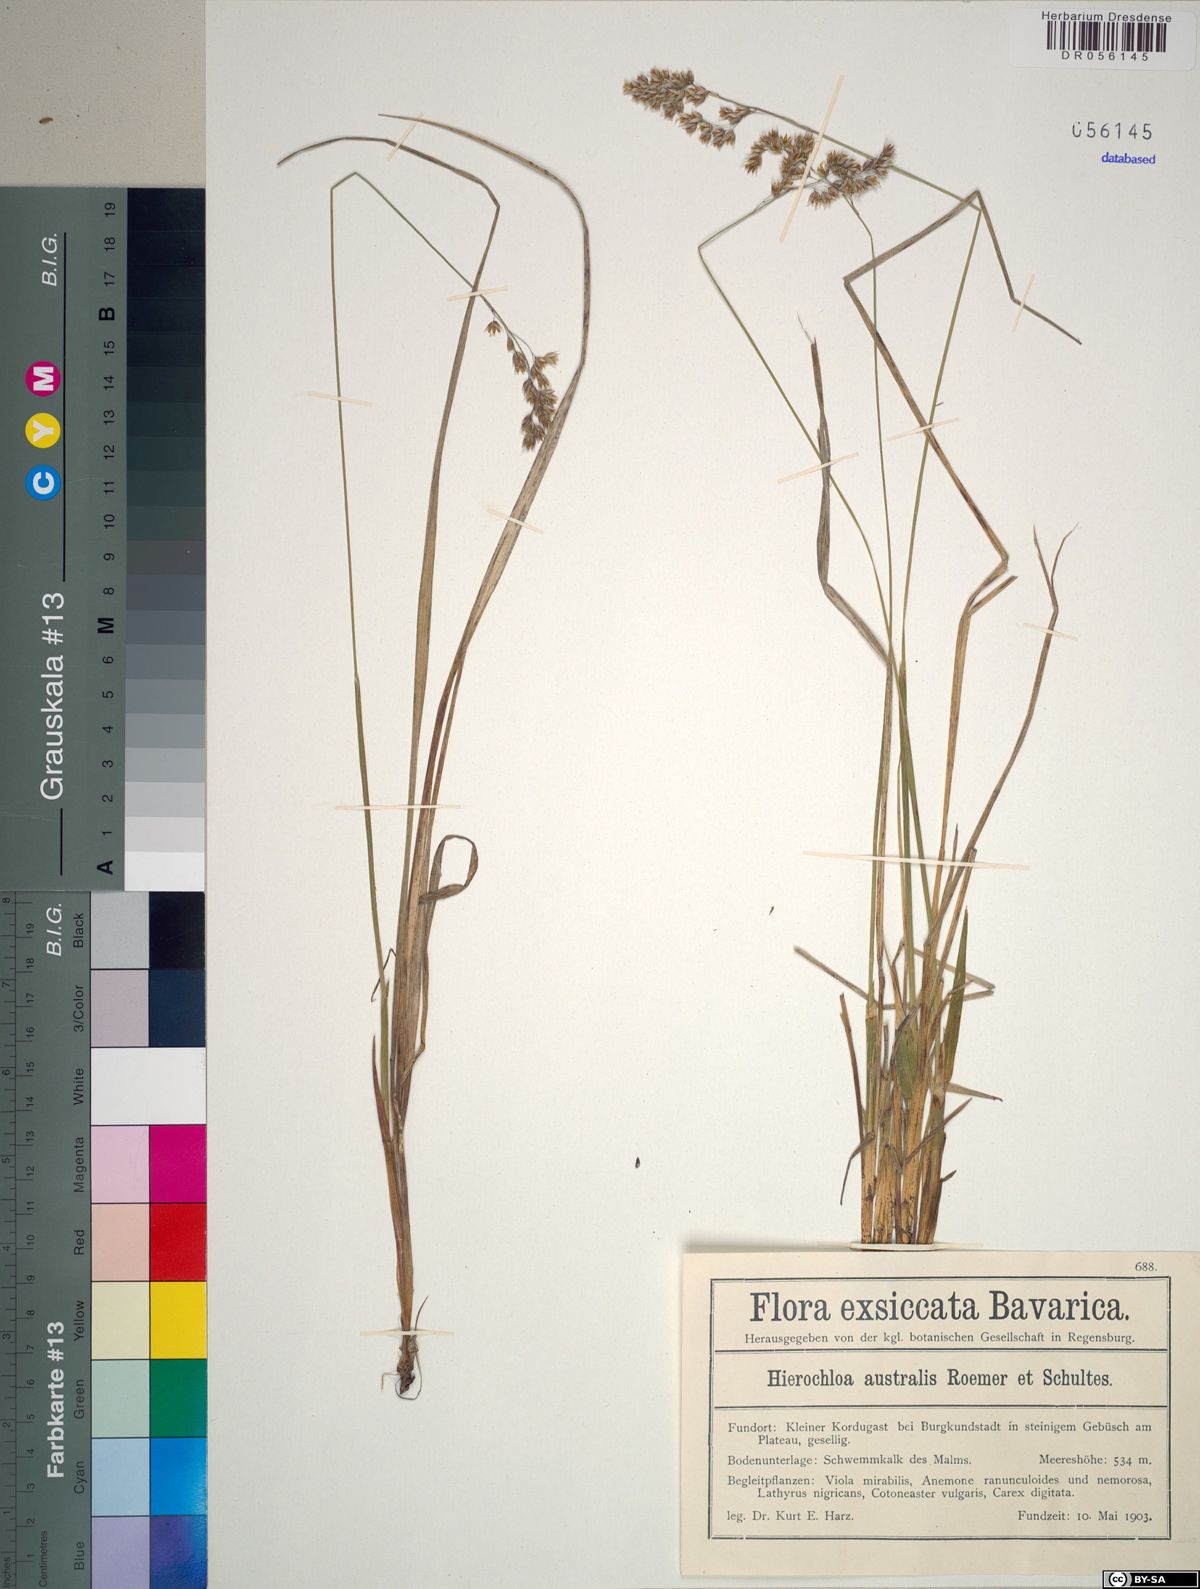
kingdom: Plantae
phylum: Tracheophyta
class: Liliopsida
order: Poales
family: Poaceae
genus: Anthoxanthum
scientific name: Anthoxanthum australe
